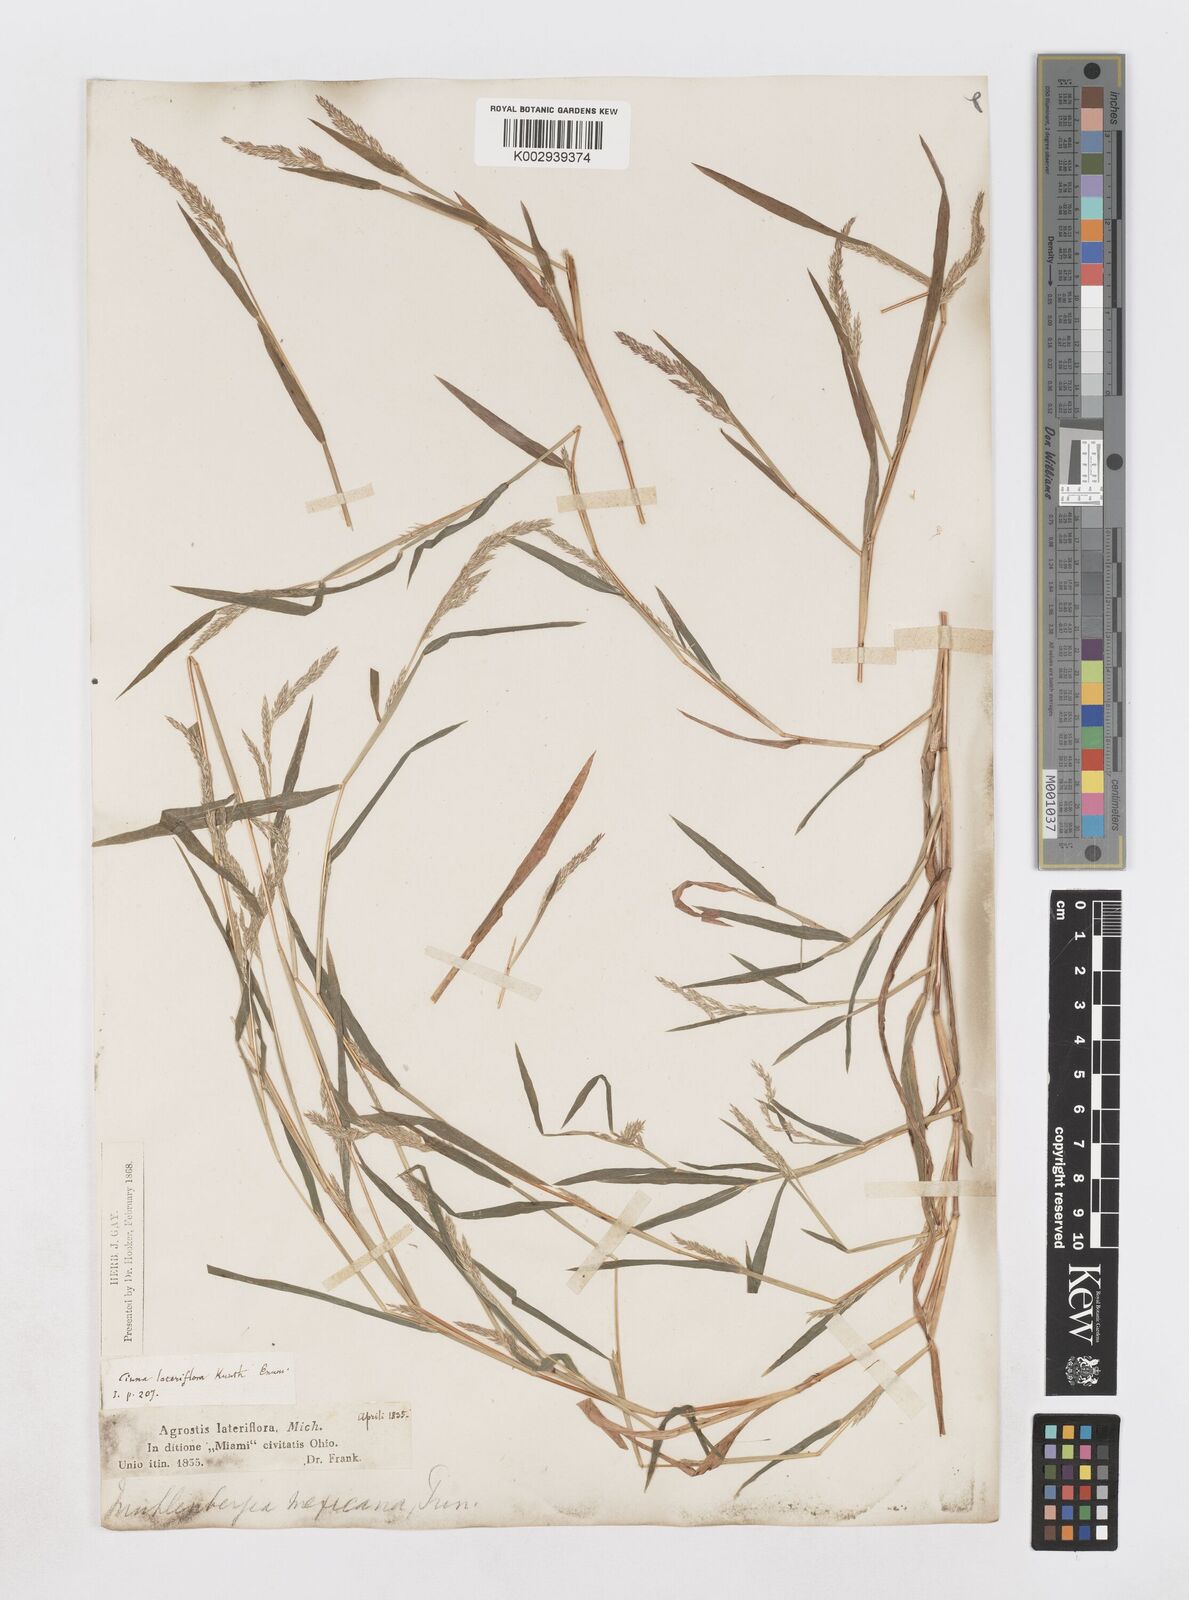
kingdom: Plantae
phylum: Tracheophyta
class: Liliopsida
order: Poales
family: Poaceae
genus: Muhlenbergia
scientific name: Muhlenbergia mexicana
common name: Mexican muhly
